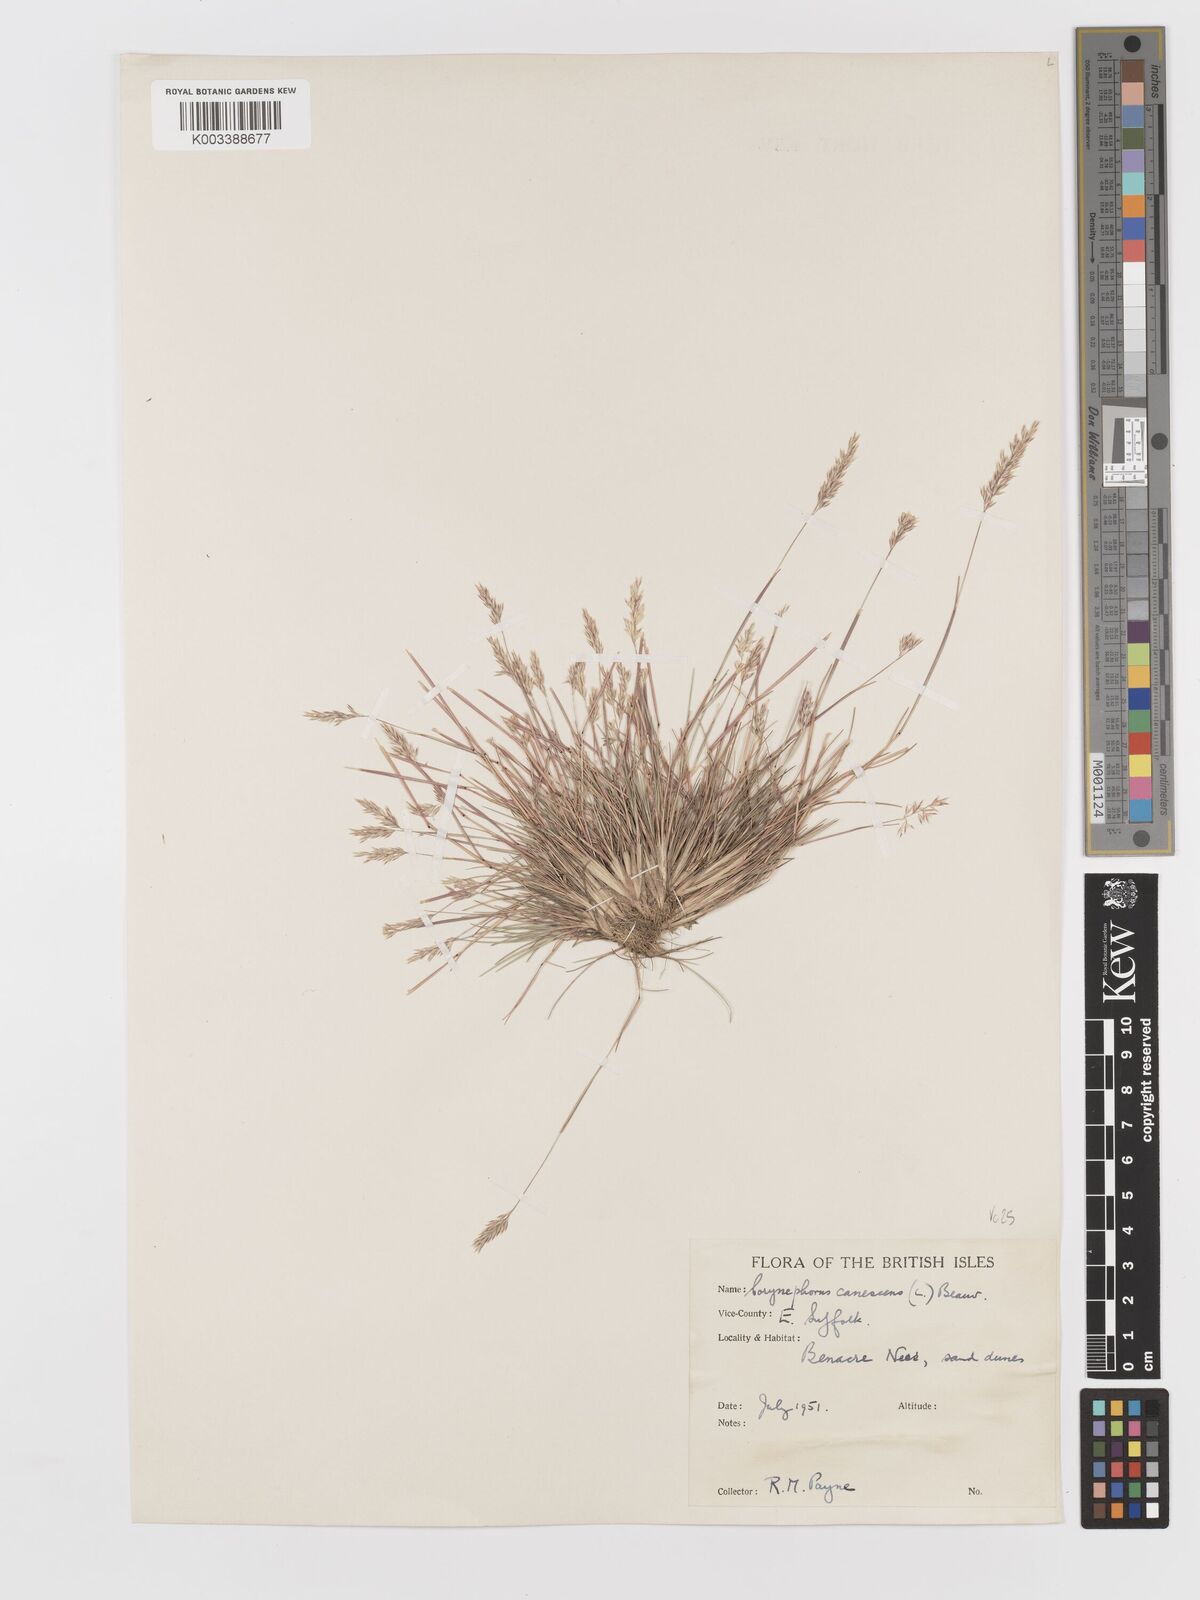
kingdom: Plantae
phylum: Tracheophyta
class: Liliopsida
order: Poales
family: Poaceae
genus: Corynephorus
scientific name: Corynephorus canescens
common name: Grey hair-grass
